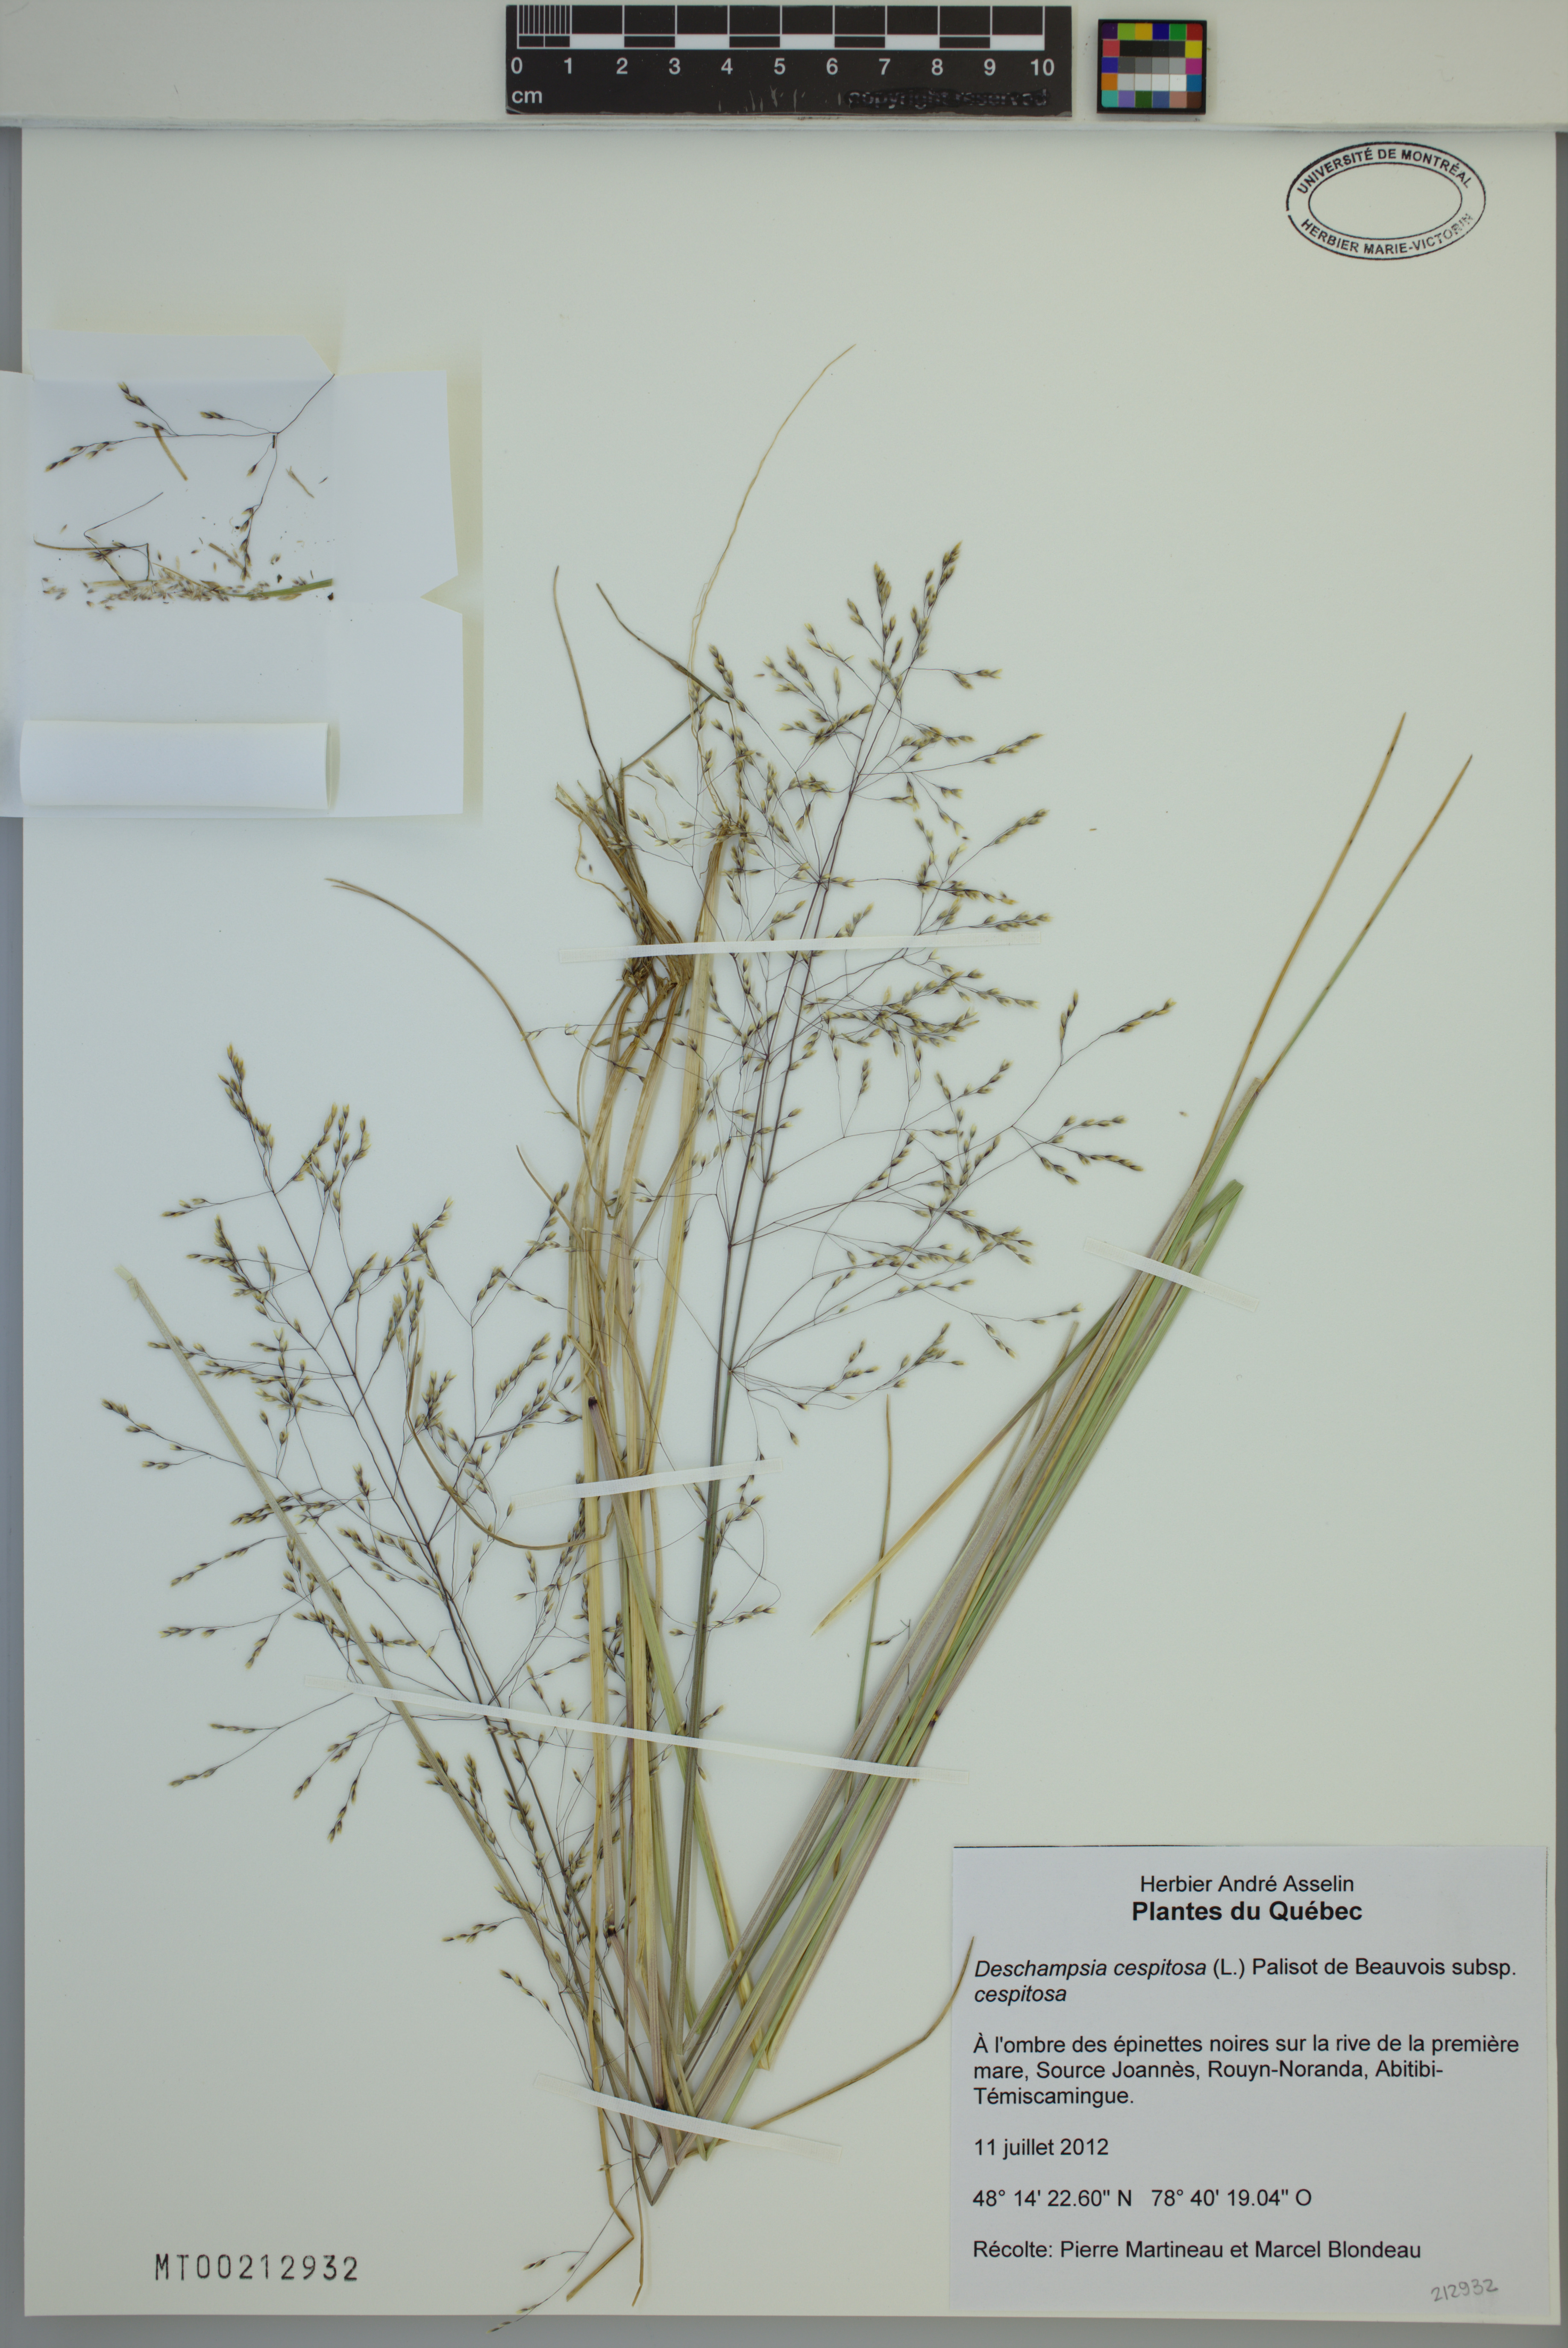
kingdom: Plantae
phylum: Tracheophyta
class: Liliopsida
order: Poales
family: Poaceae
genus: Deschampsia
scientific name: Deschampsia cespitosa
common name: Tufted hair-grass
